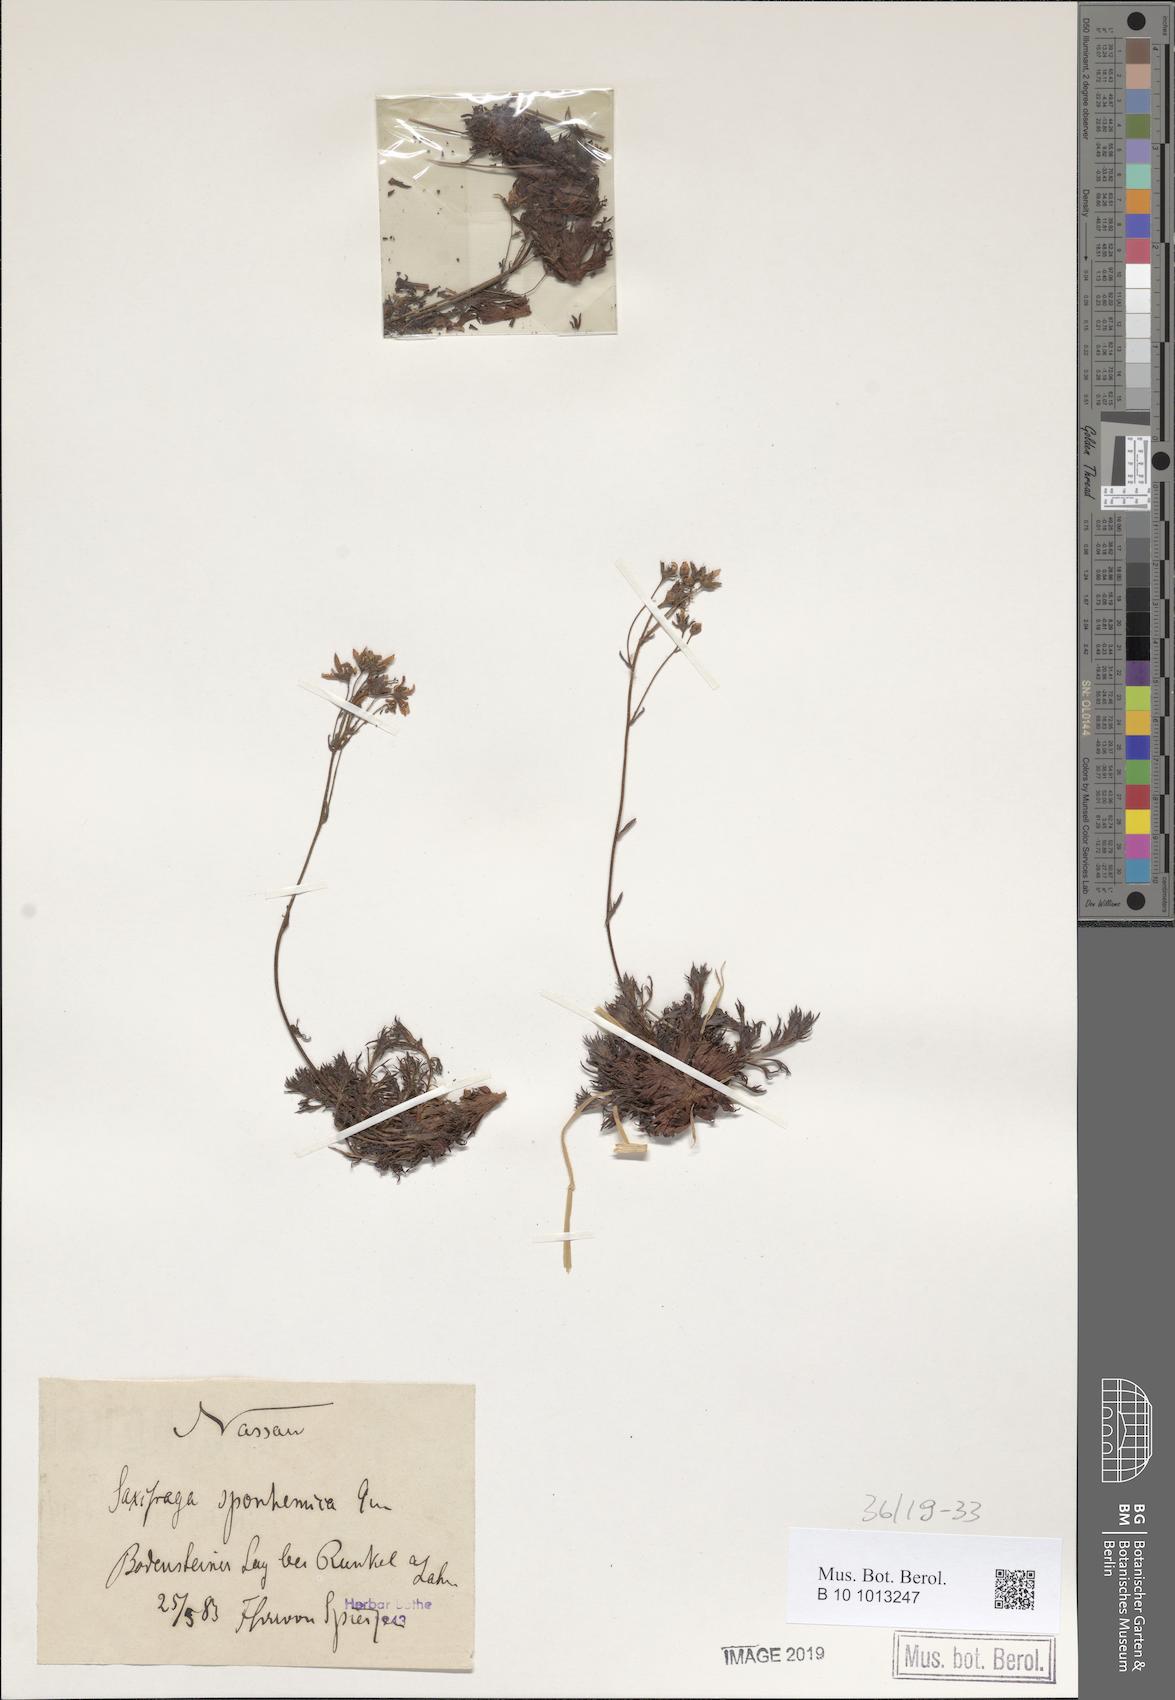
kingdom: Plantae
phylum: Tracheophyta
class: Magnoliopsida
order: Saxifragales
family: Saxifragaceae
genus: Saxifraga
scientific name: Saxifraga rosacea
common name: Irish saxifrage
